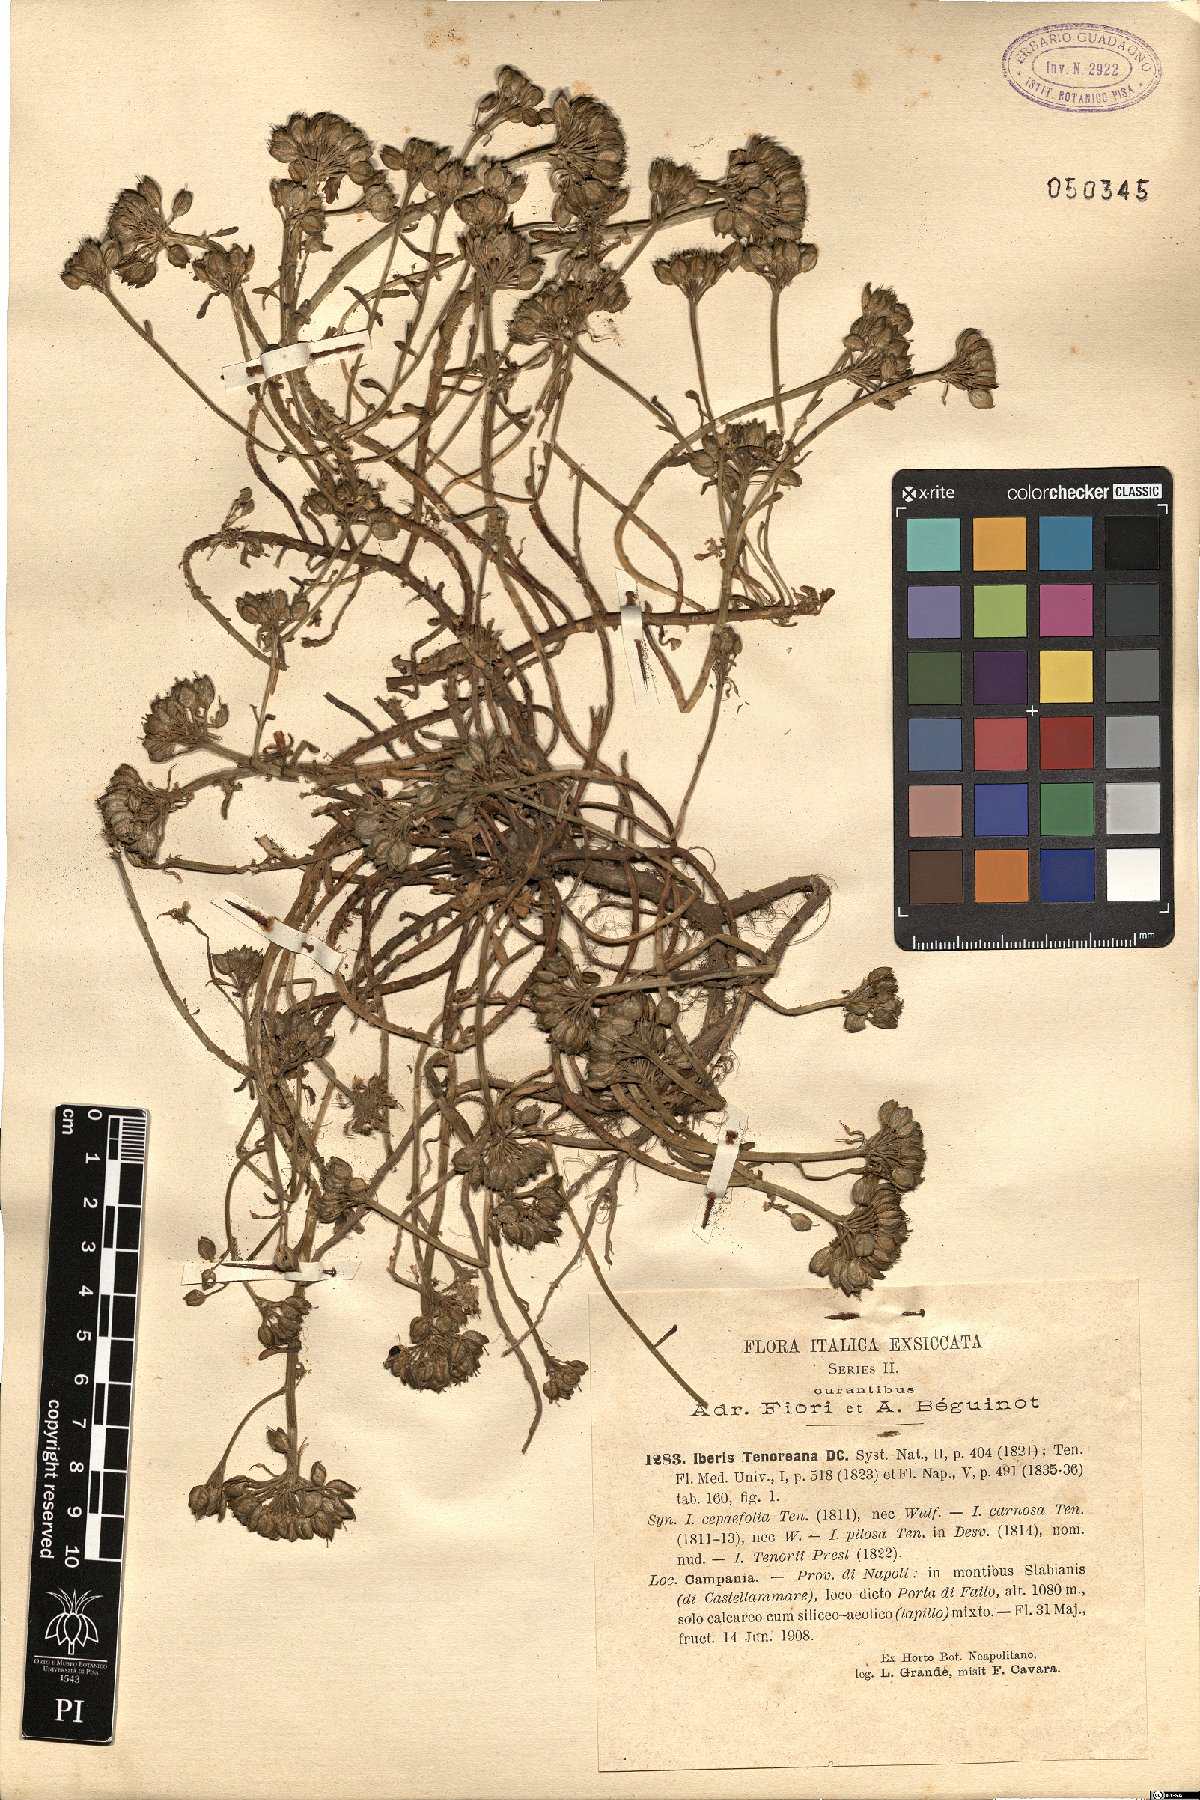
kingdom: Plantae
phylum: Tracheophyta
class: Magnoliopsida
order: Brassicales
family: Brassicaceae
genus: Iberis
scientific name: Iberis carnosa
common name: Pruit's candytuft
